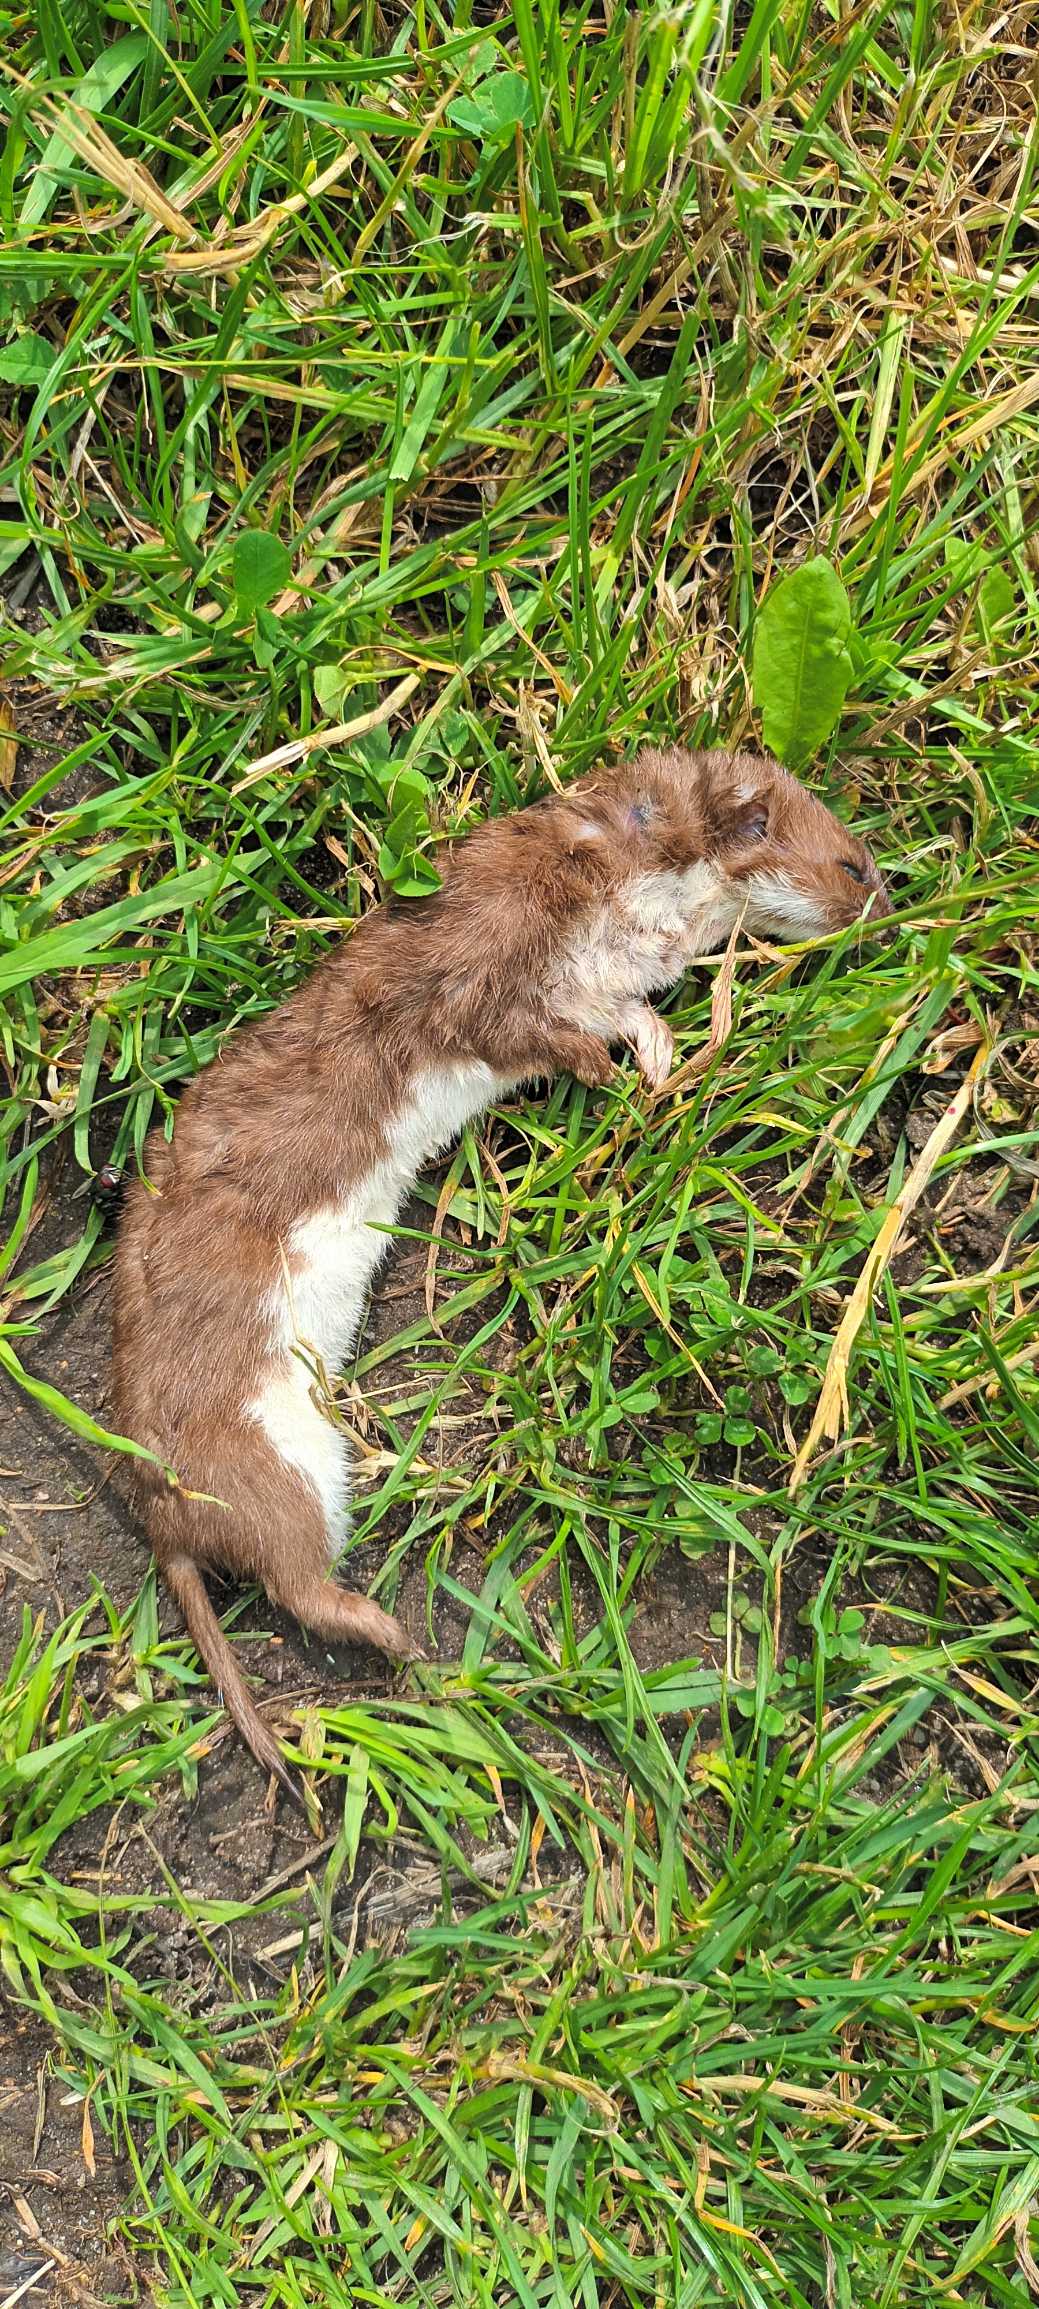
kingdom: Animalia
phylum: Chordata
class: Mammalia
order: Carnivora
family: Mustelidae
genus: Mustela
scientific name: Mustela nivalis
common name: Brud
